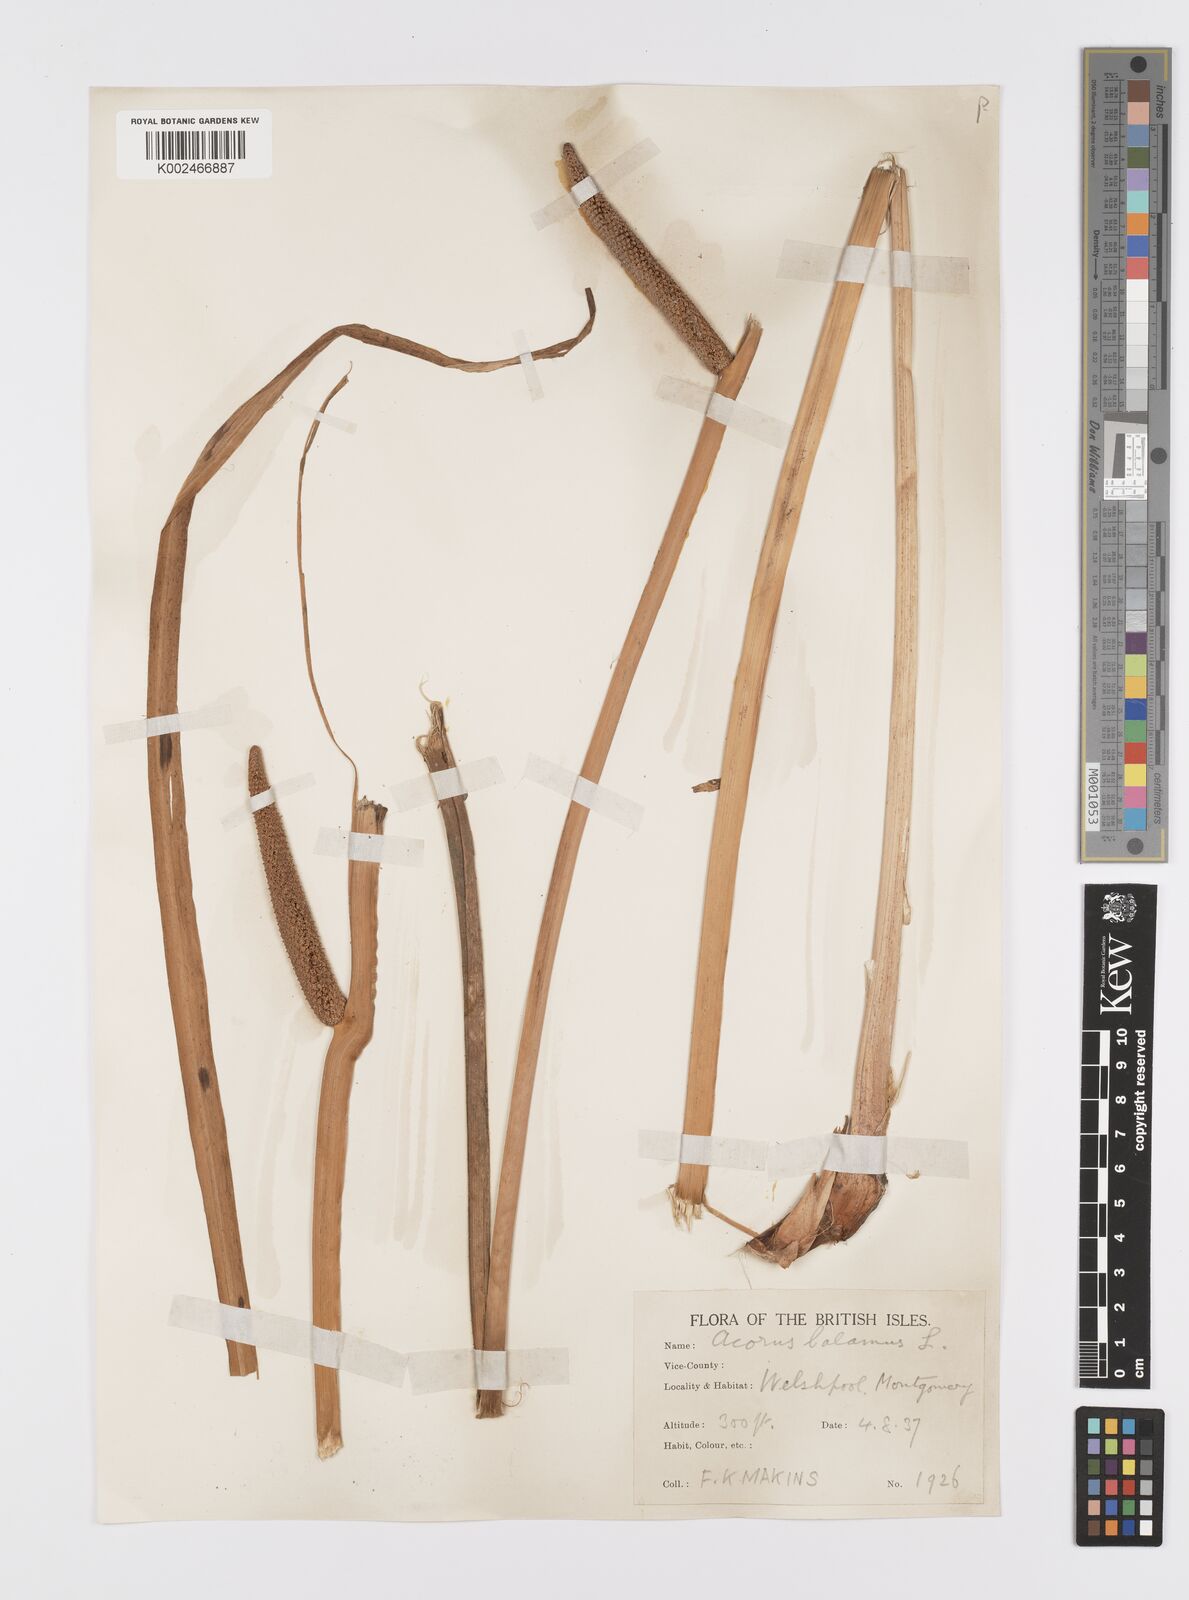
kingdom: Plantae
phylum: Tracheophyta
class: Liliopsida
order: Acorales
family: Acoraceae
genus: Acorus
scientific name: Acorus calamus
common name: Sweet-flag
